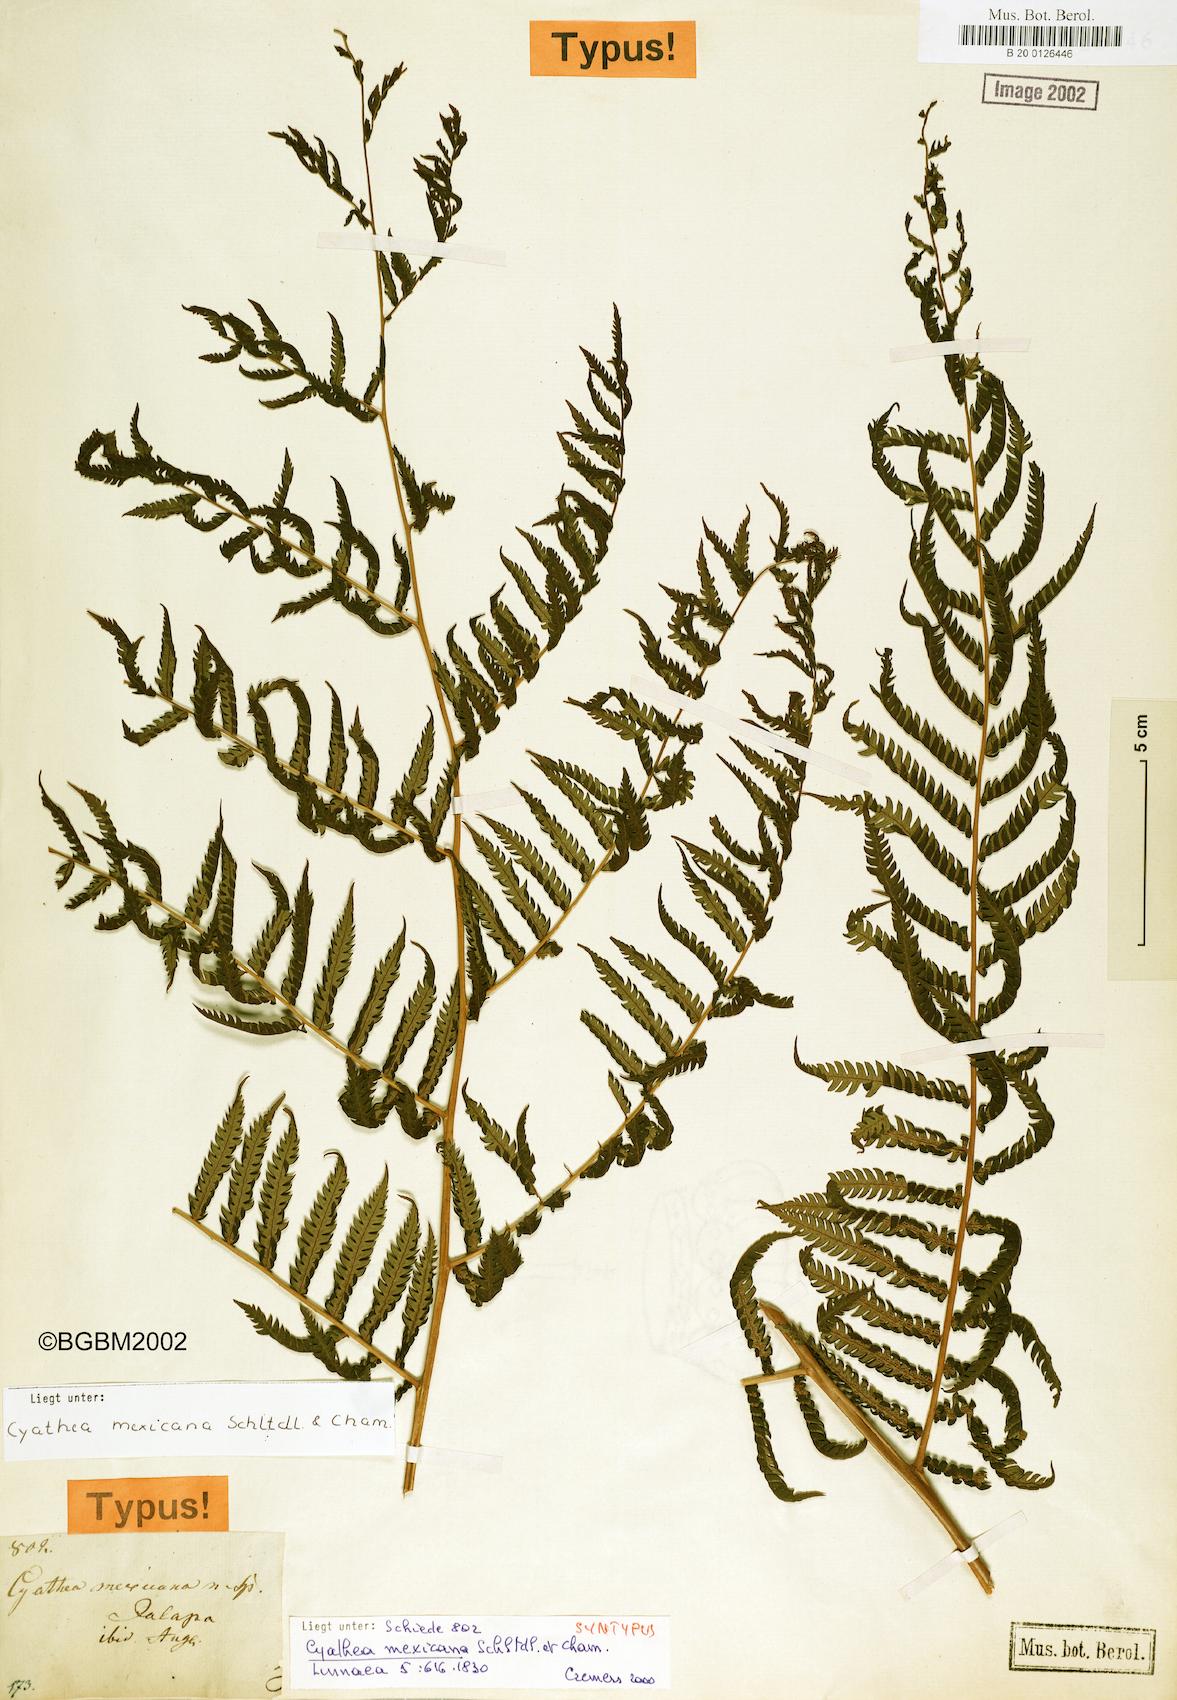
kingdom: Plantae
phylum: Tracheophyta
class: Polypodiopsida
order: Cyatheales
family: Cyatheaceae
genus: Alsophila
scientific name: Alsophila firma
